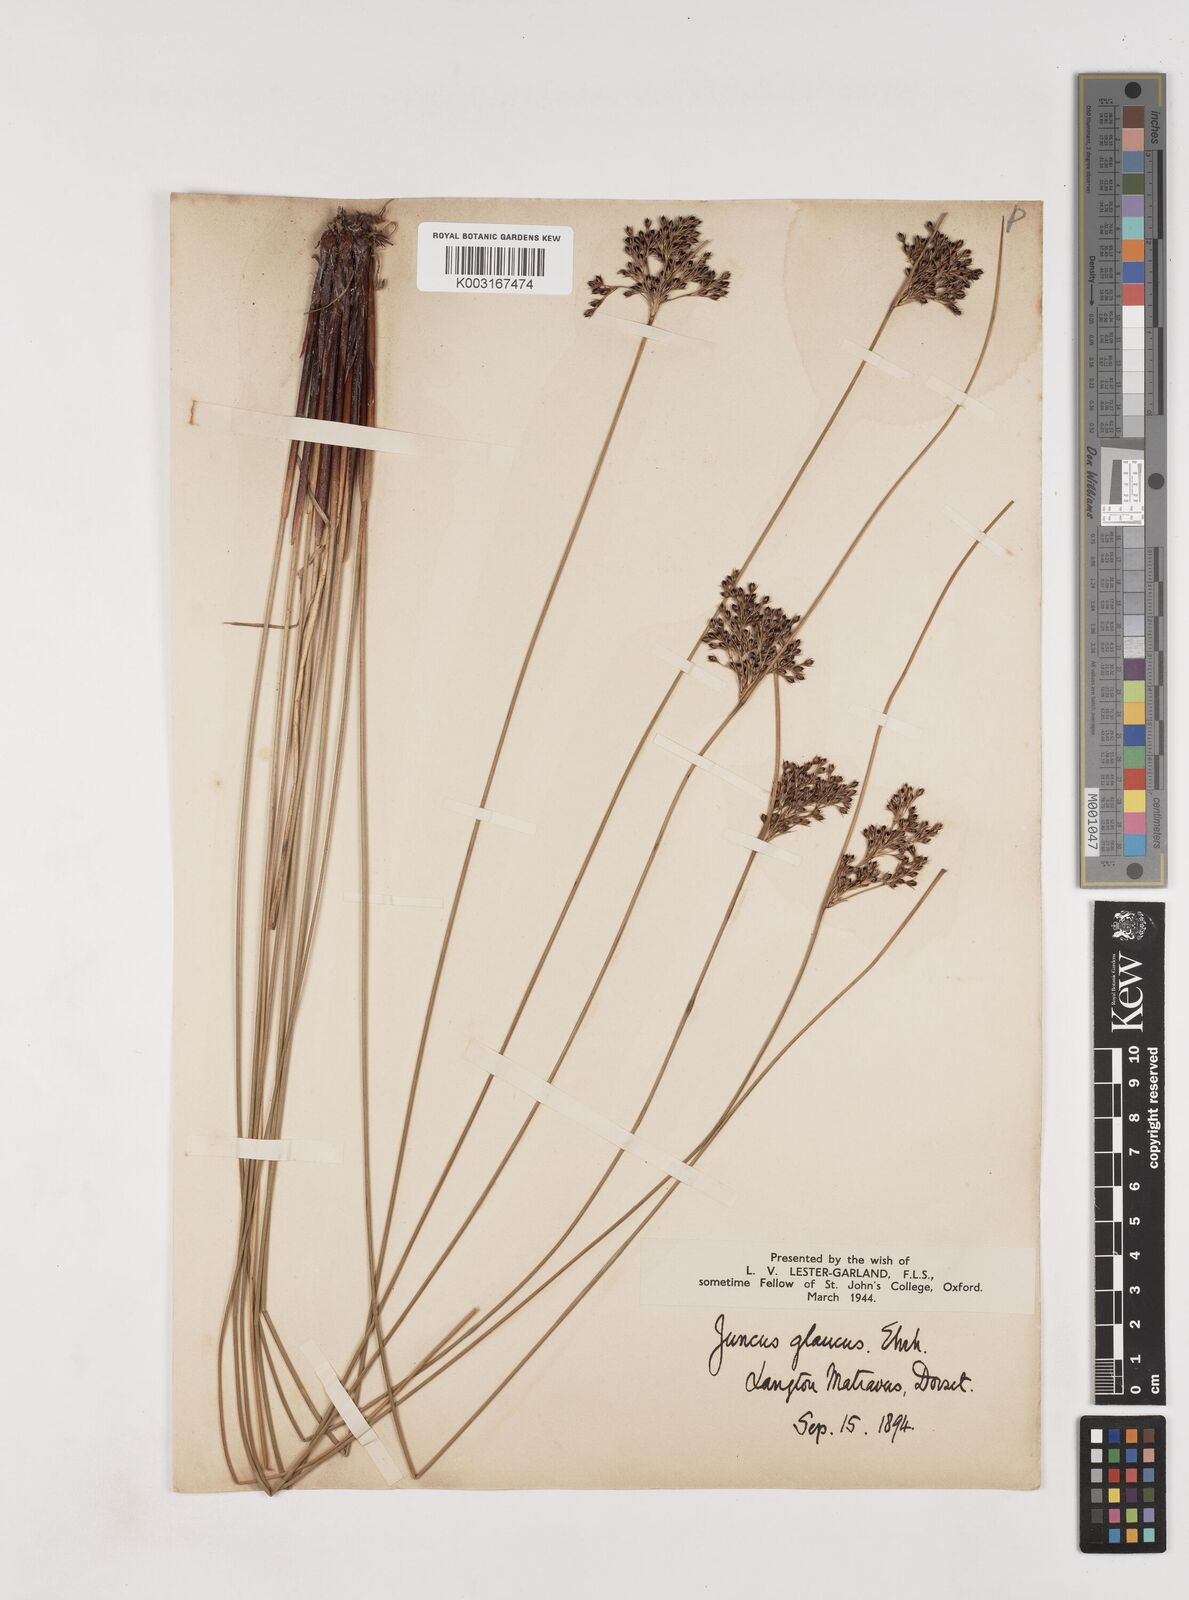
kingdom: Plantae
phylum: Tracheophyta
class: Liliopsida
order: Poales
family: Juncaceae
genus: Juncus
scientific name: Juncus inflexus
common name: Hard rush
